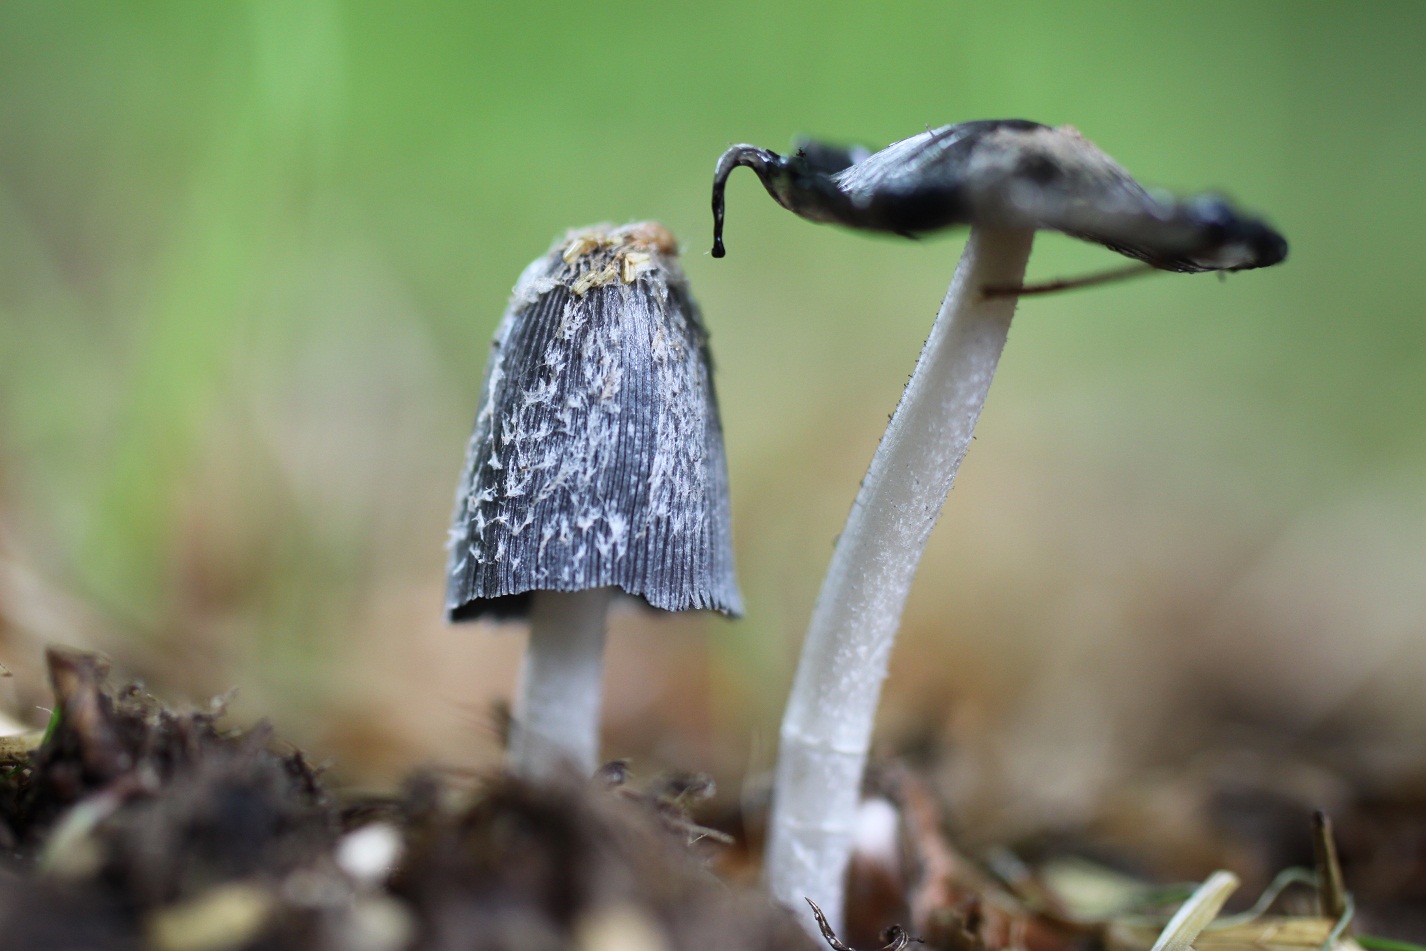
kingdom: Fungi
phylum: Basidiomycota
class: Agaricomycetes
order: Agaricales
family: Psathyrellaceae
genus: Coprinopsis
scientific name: Coprinopsis radiata
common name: lille gødnings-blækhat
